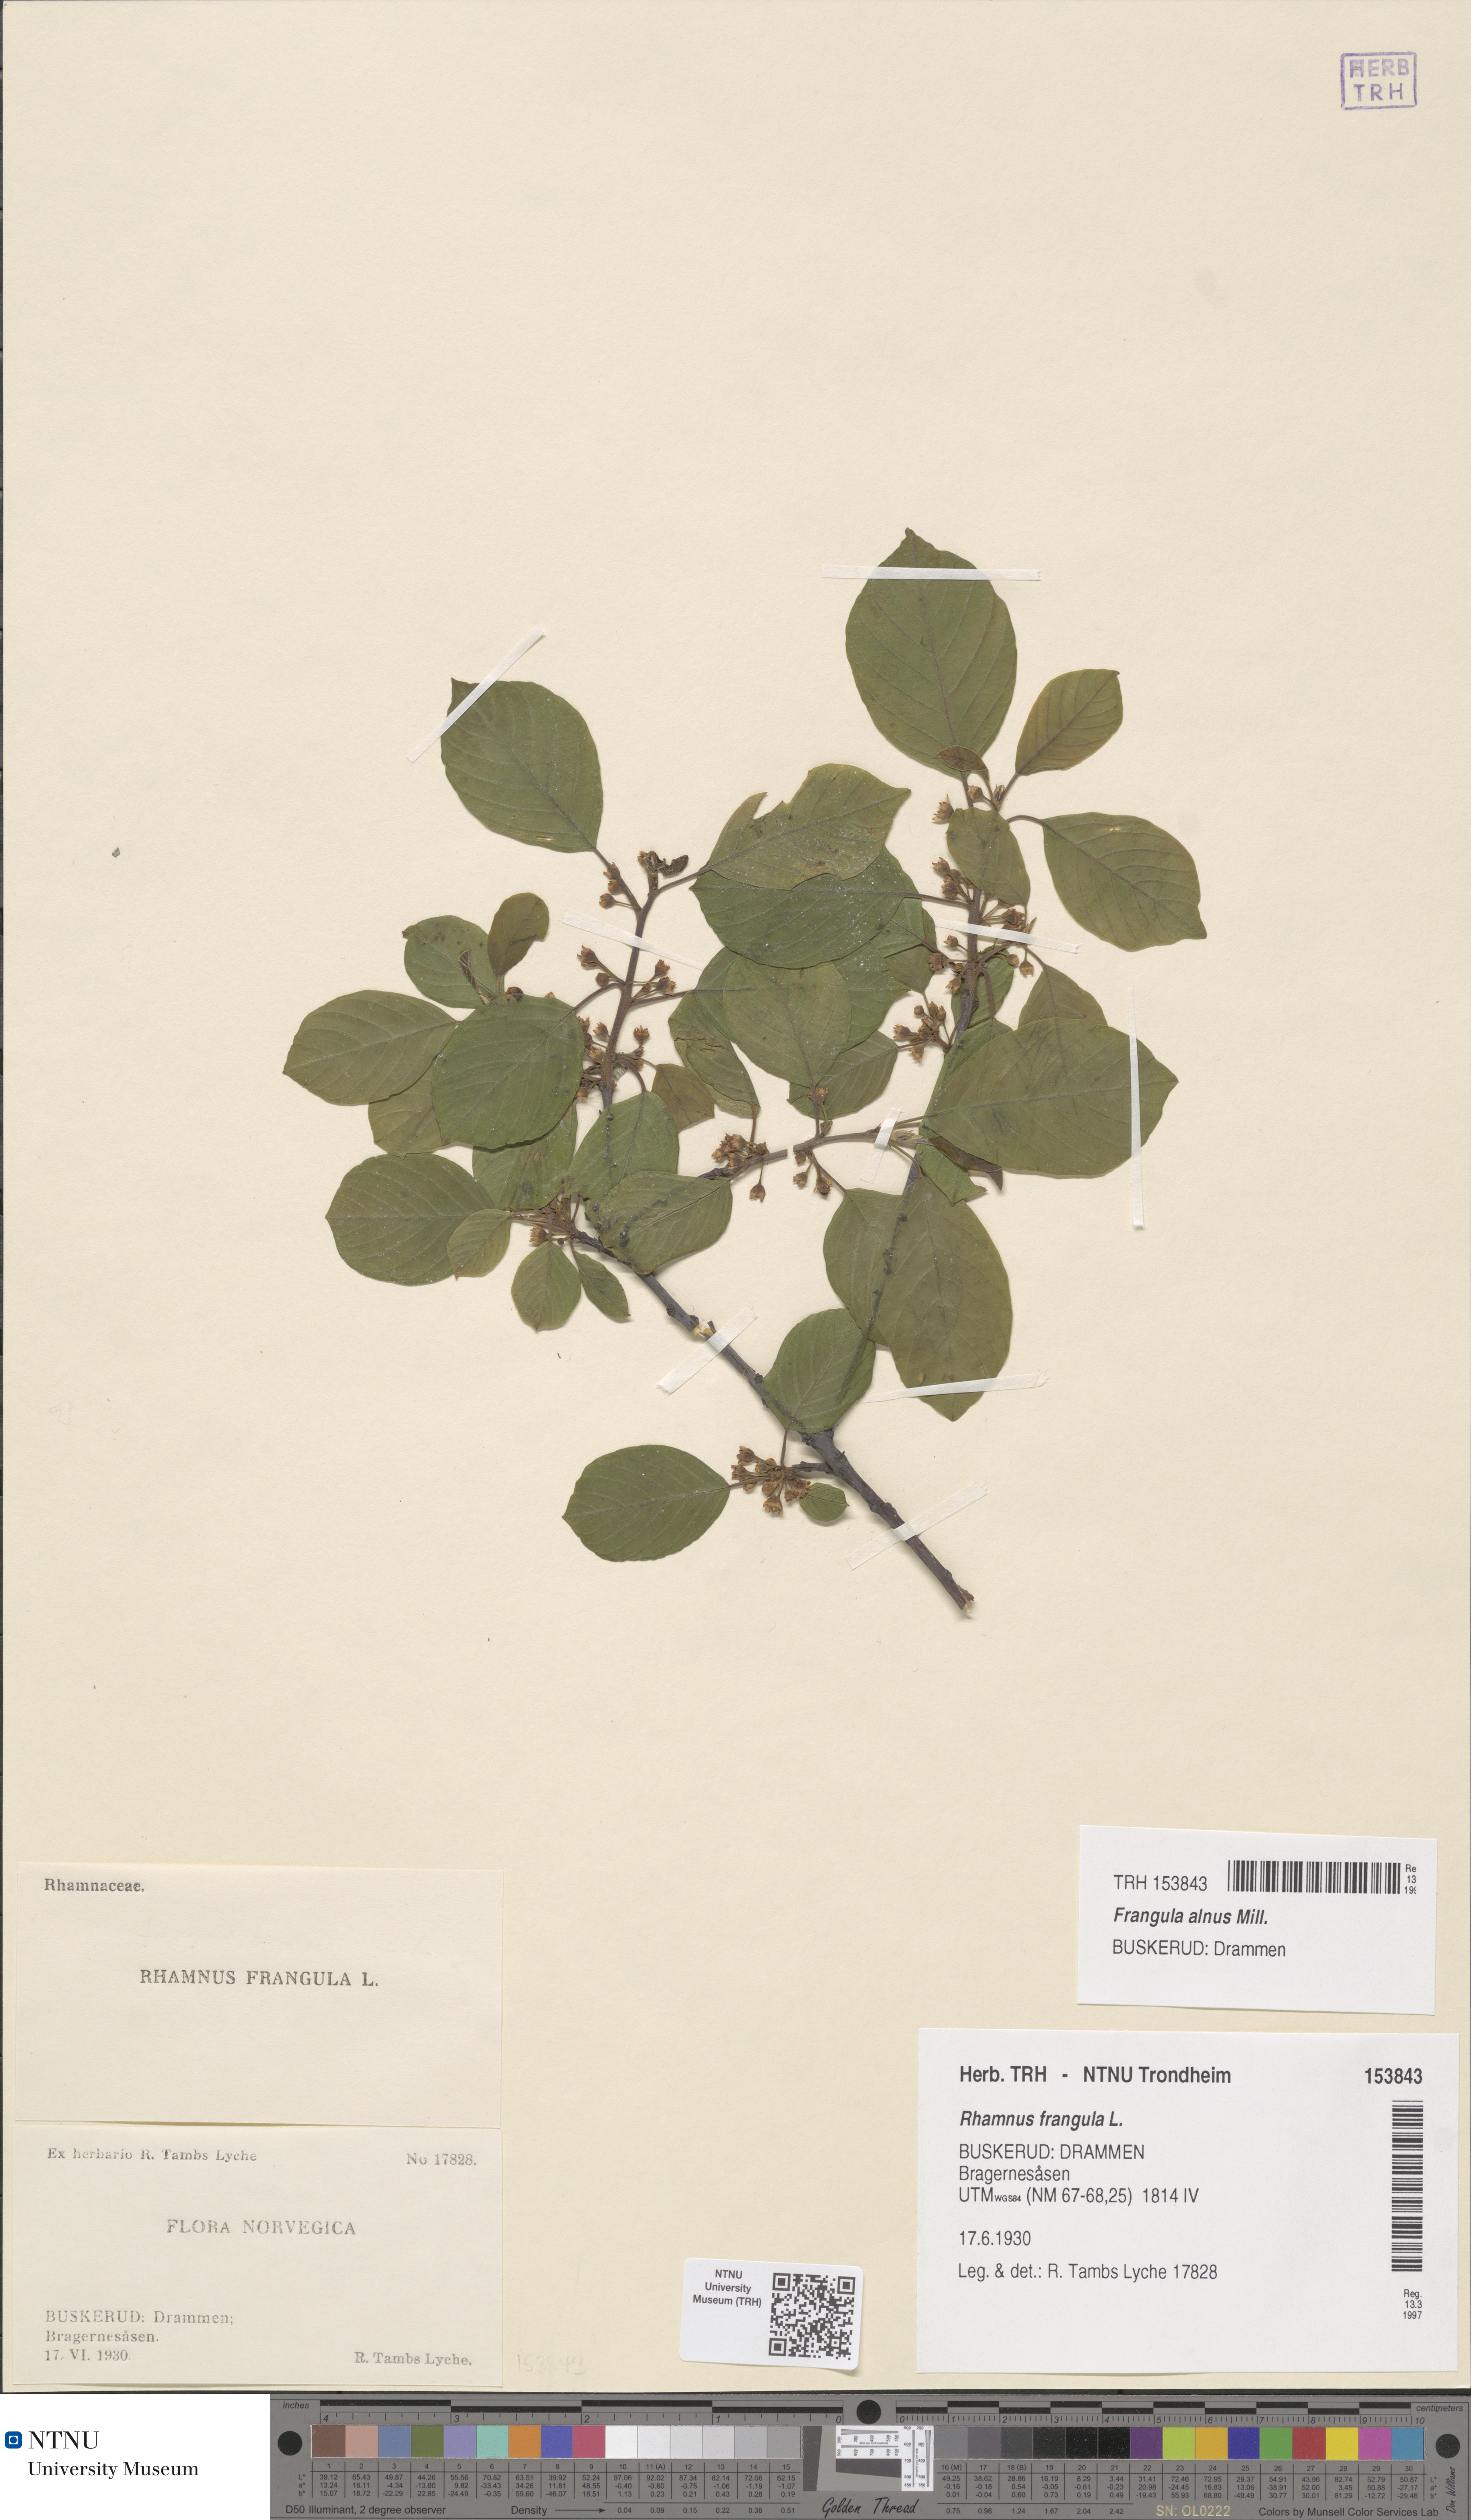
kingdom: Plantae
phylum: Tracheophyta
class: Magnoliopsida
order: Rosales
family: Rhamnaceae
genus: Frangula
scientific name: Frangula alnus
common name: Alder buckthorn
